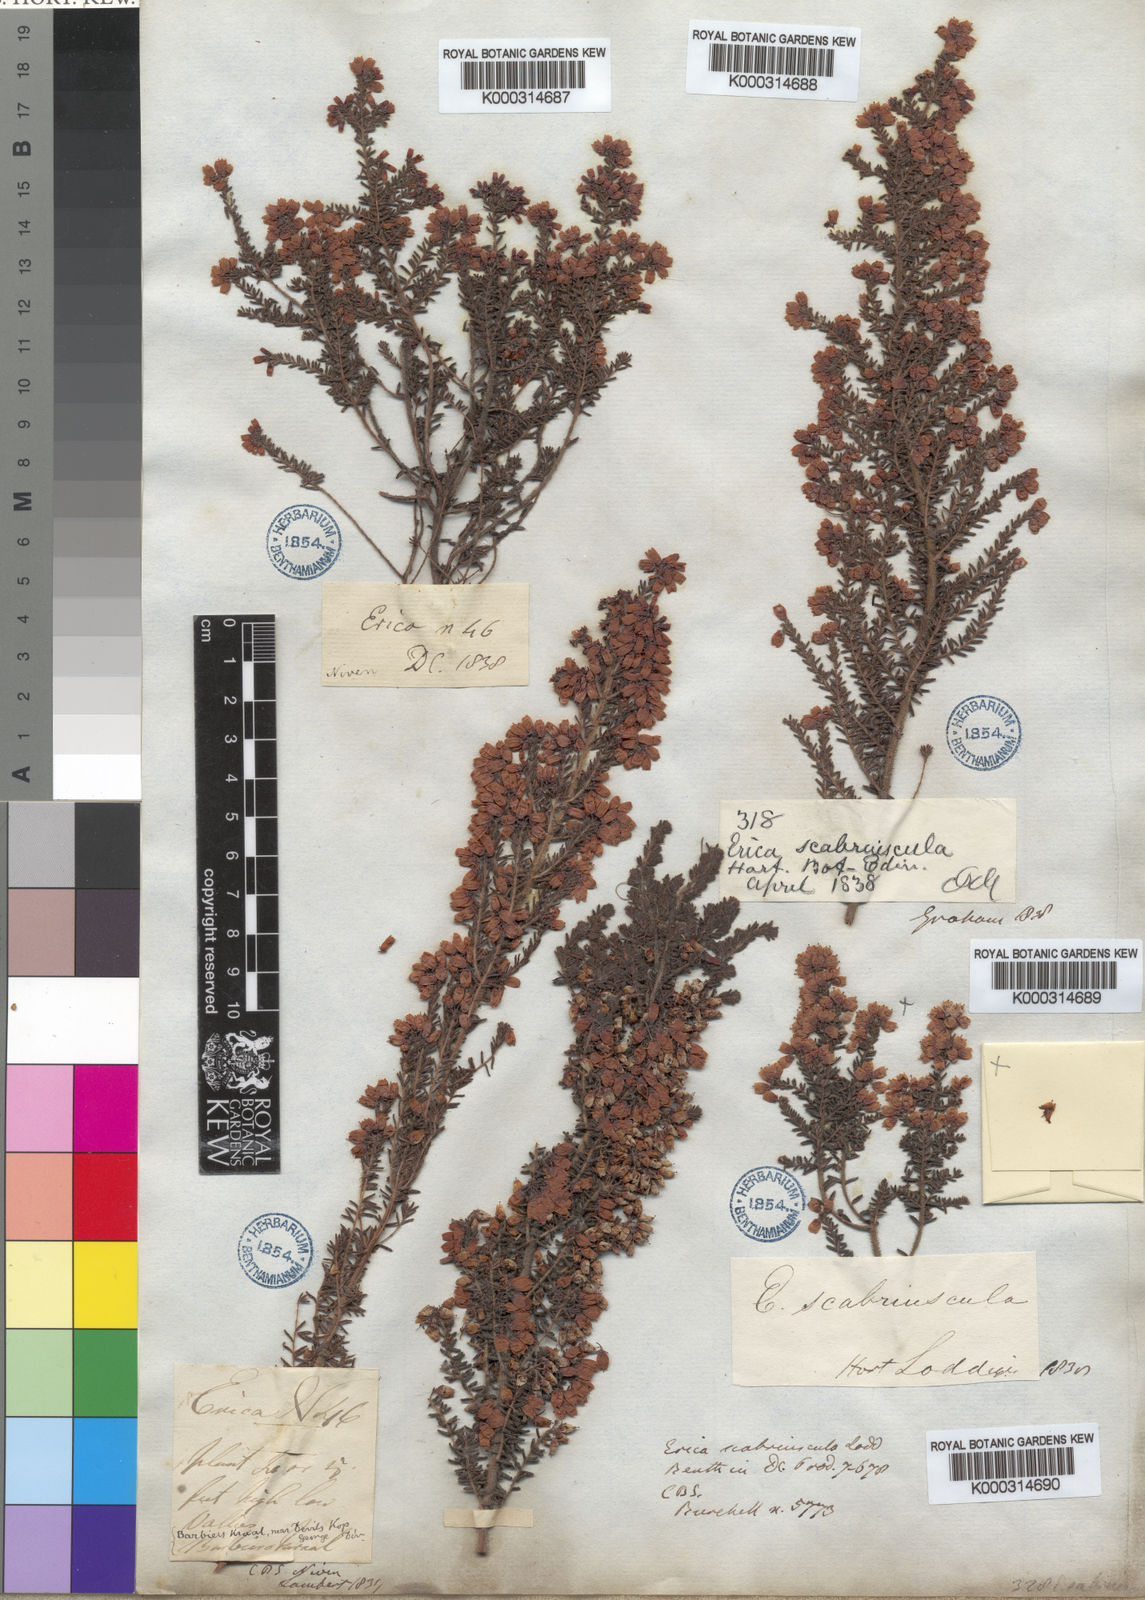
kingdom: Plantae
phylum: Tracheophyta
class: Magnoliopsida
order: Ericales
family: Ericaceae
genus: Erica
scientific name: Erica
